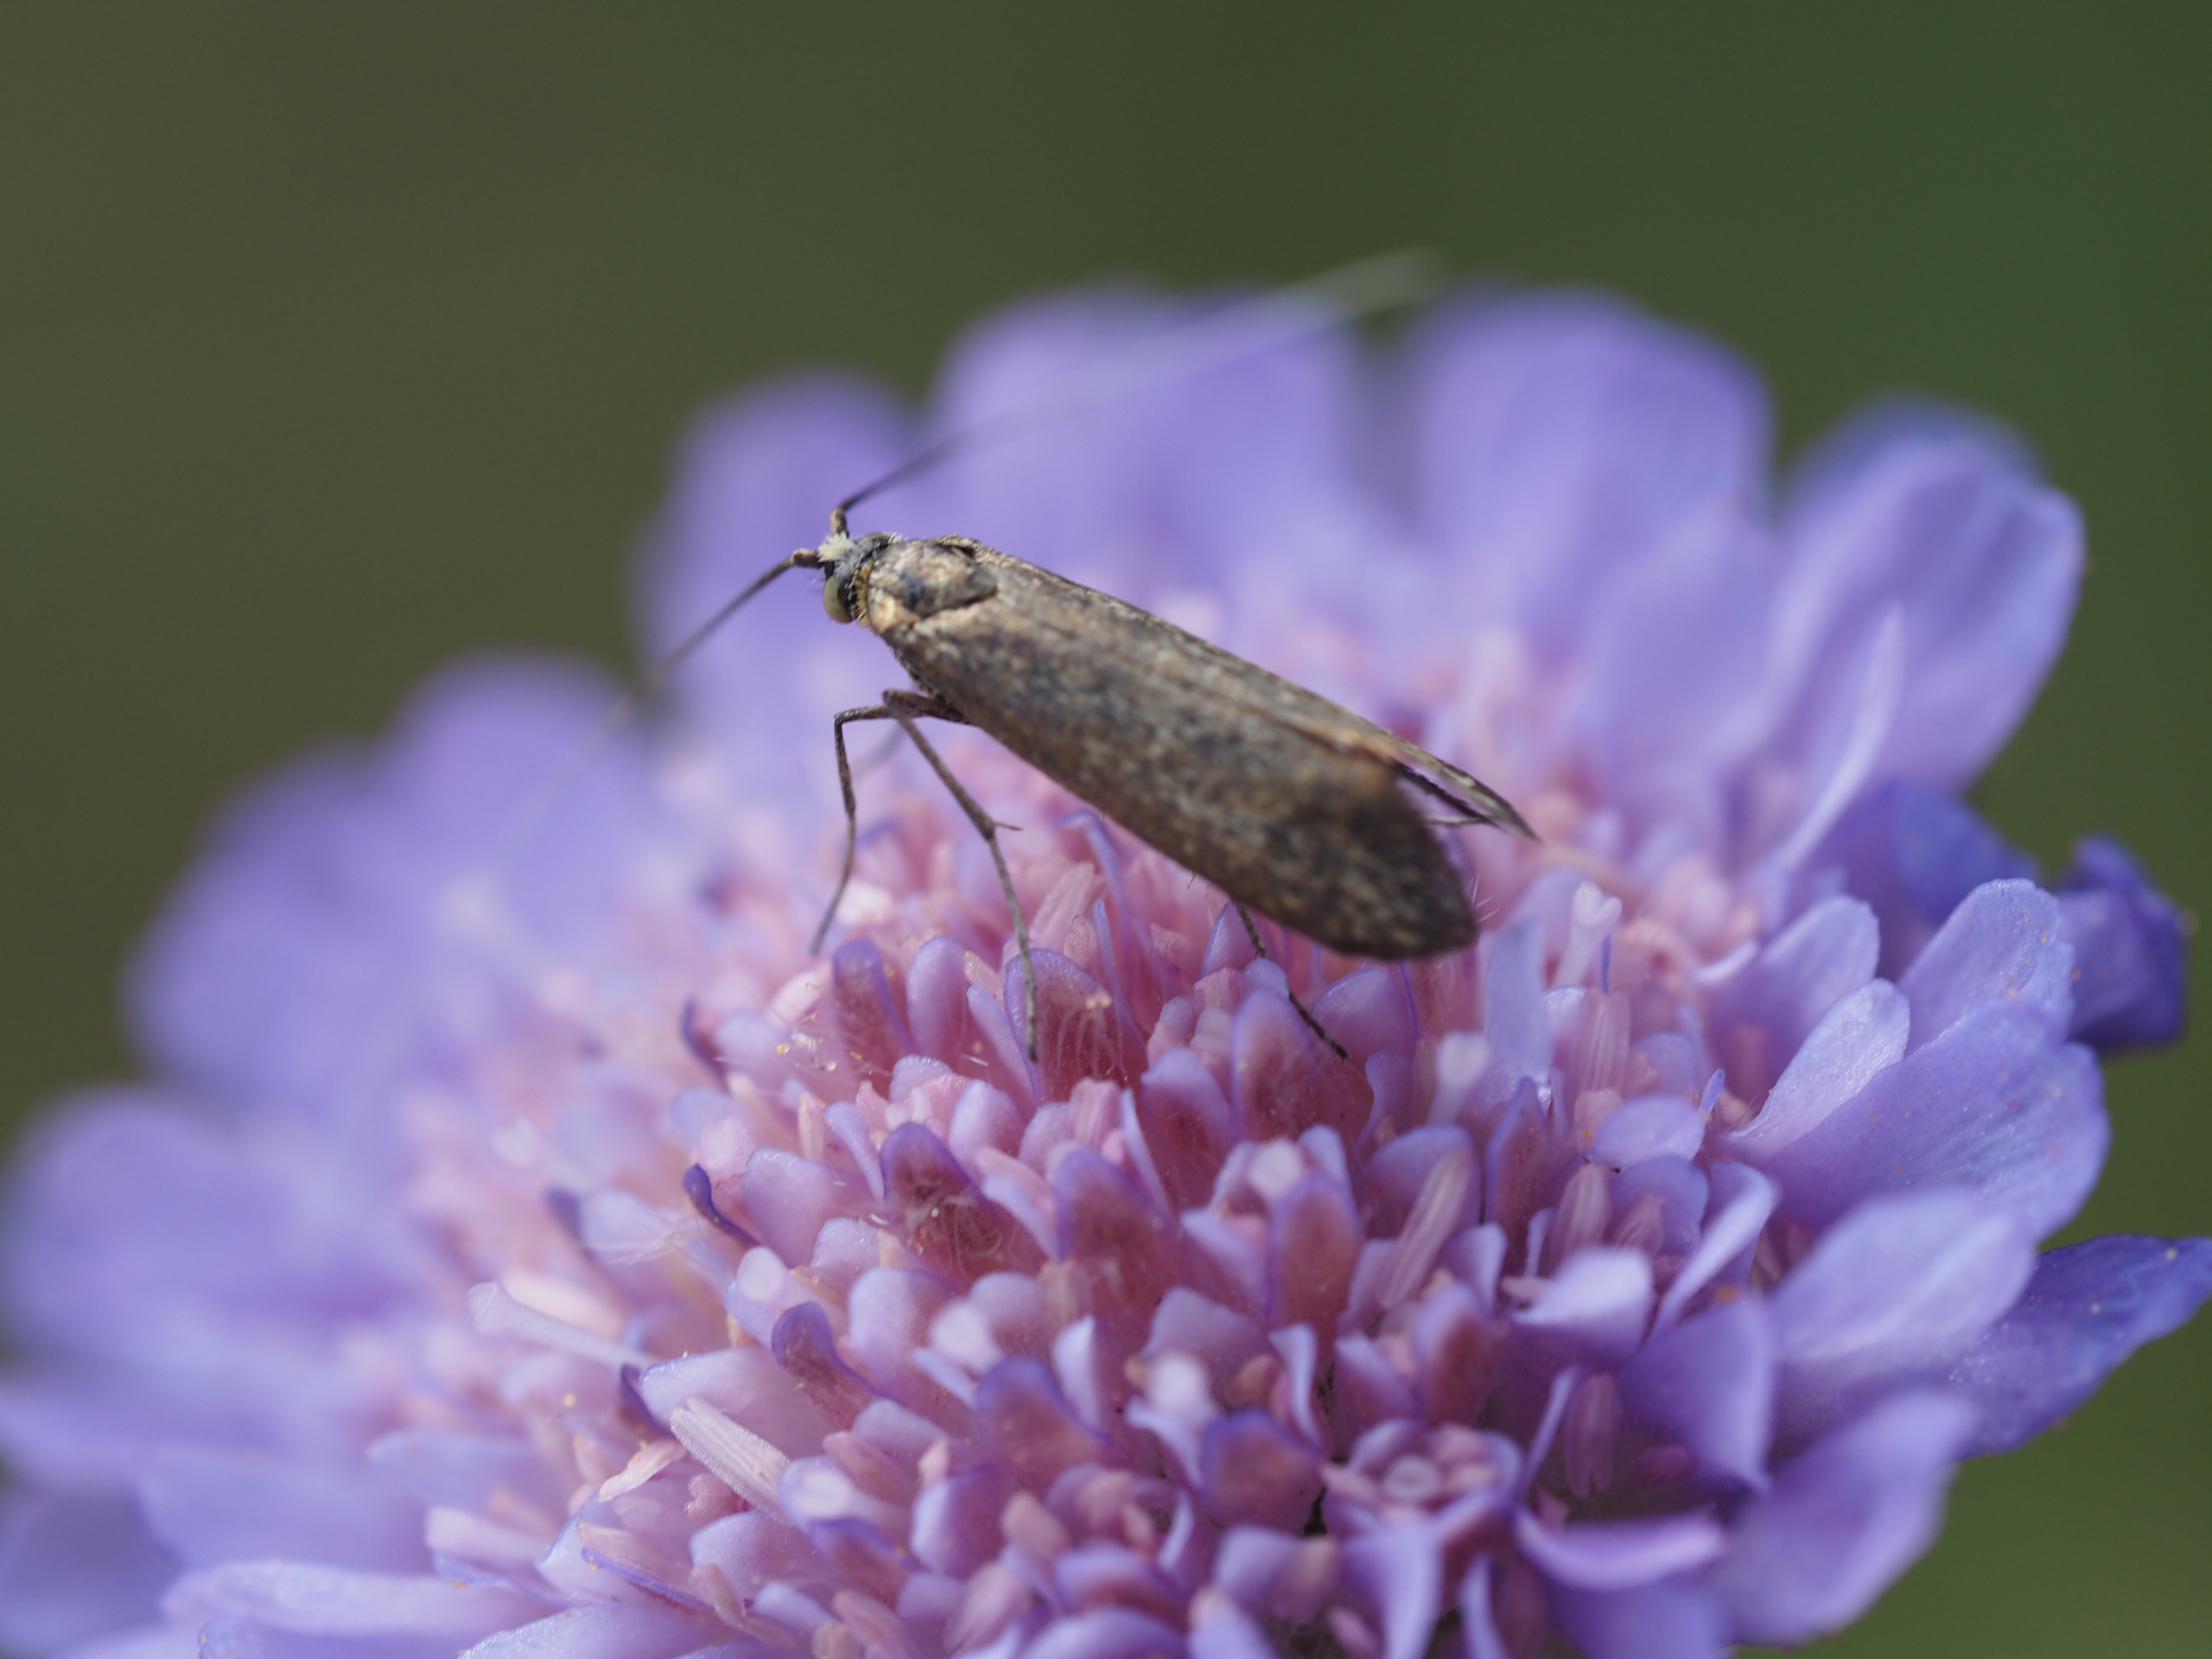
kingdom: Animalia
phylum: Arthropoda
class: Insecta
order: Lepidoptera
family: Adelidae
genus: Nemophora
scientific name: Nemophora cupriacella
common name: Blåhatlanghornsmøl
